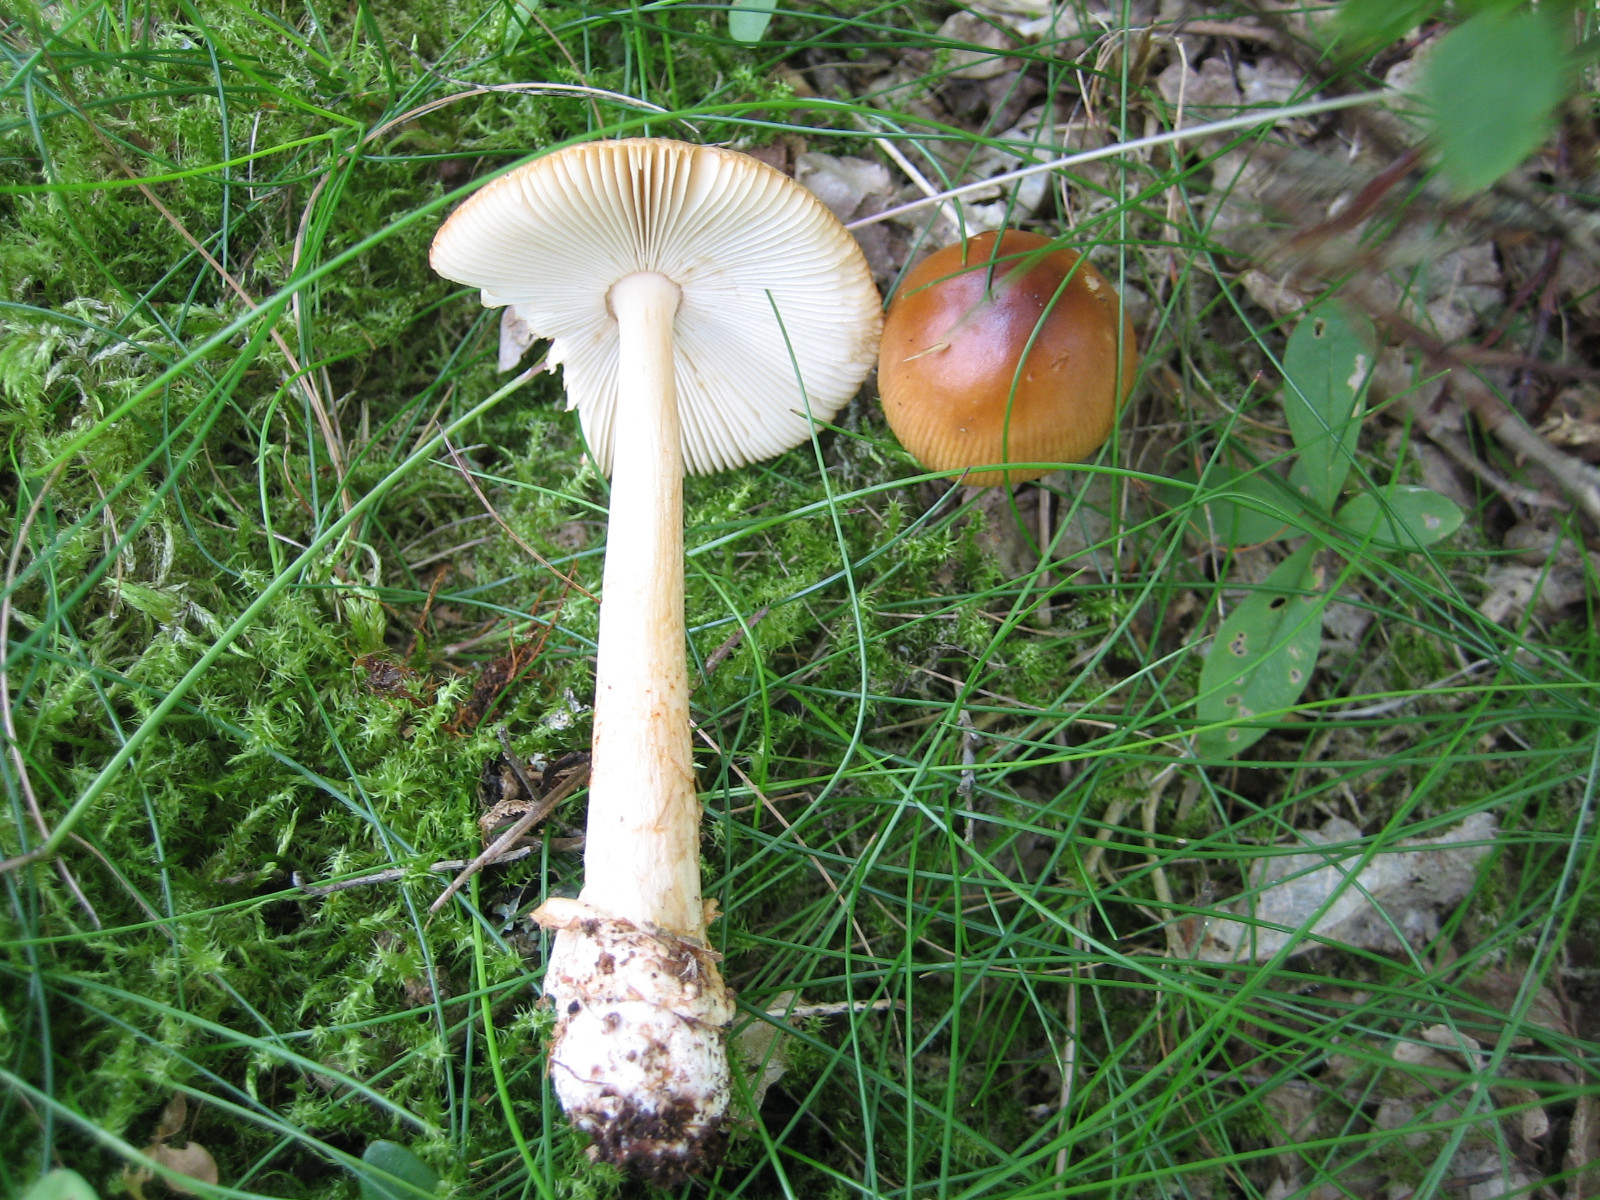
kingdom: Fungi
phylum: Basidiomycota
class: Agaricomycetes
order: Agaricales
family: Amanitaceae
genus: Amanita
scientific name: Amanita fulva
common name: brun kam-fluesvamp
